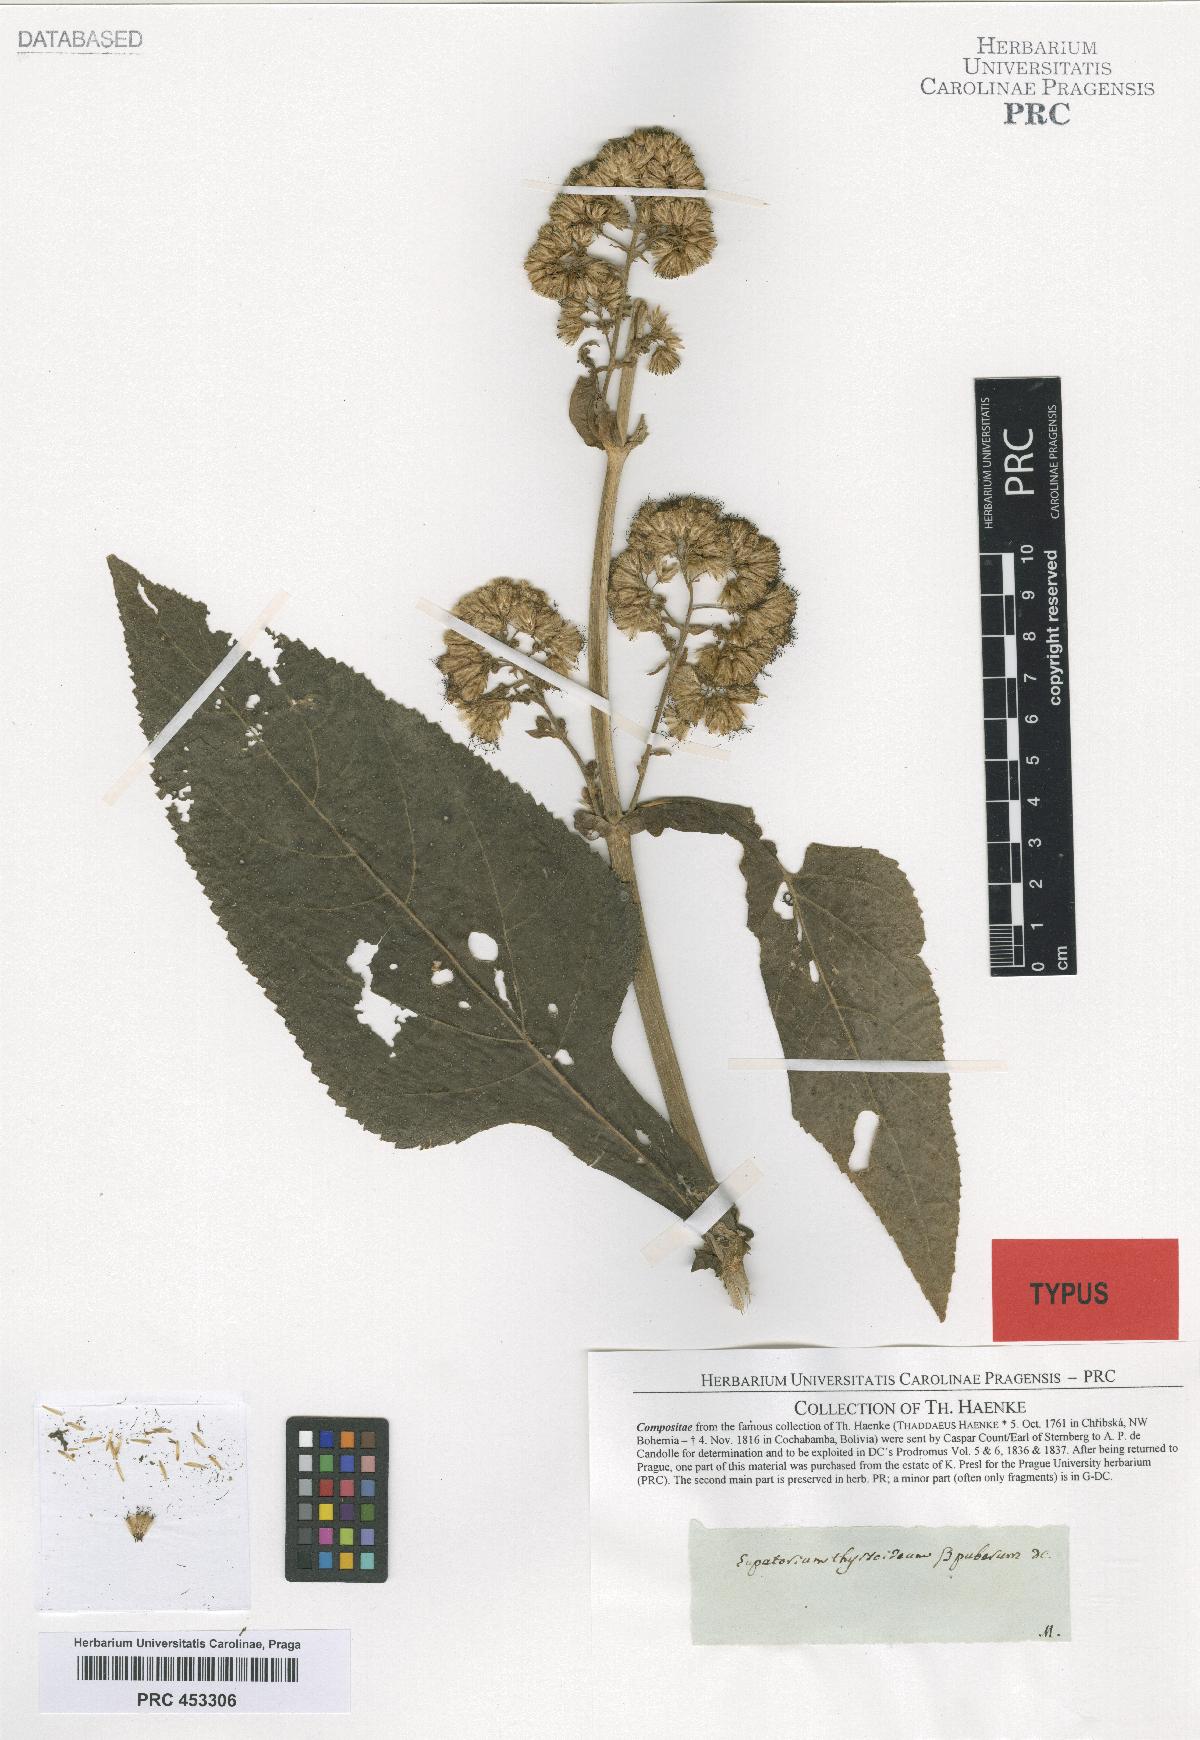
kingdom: Plantae
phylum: Tracheophyta
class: Magnoliopsida
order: Asterales
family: Asteraceae
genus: Critonia
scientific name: Critonia quadrangularis
